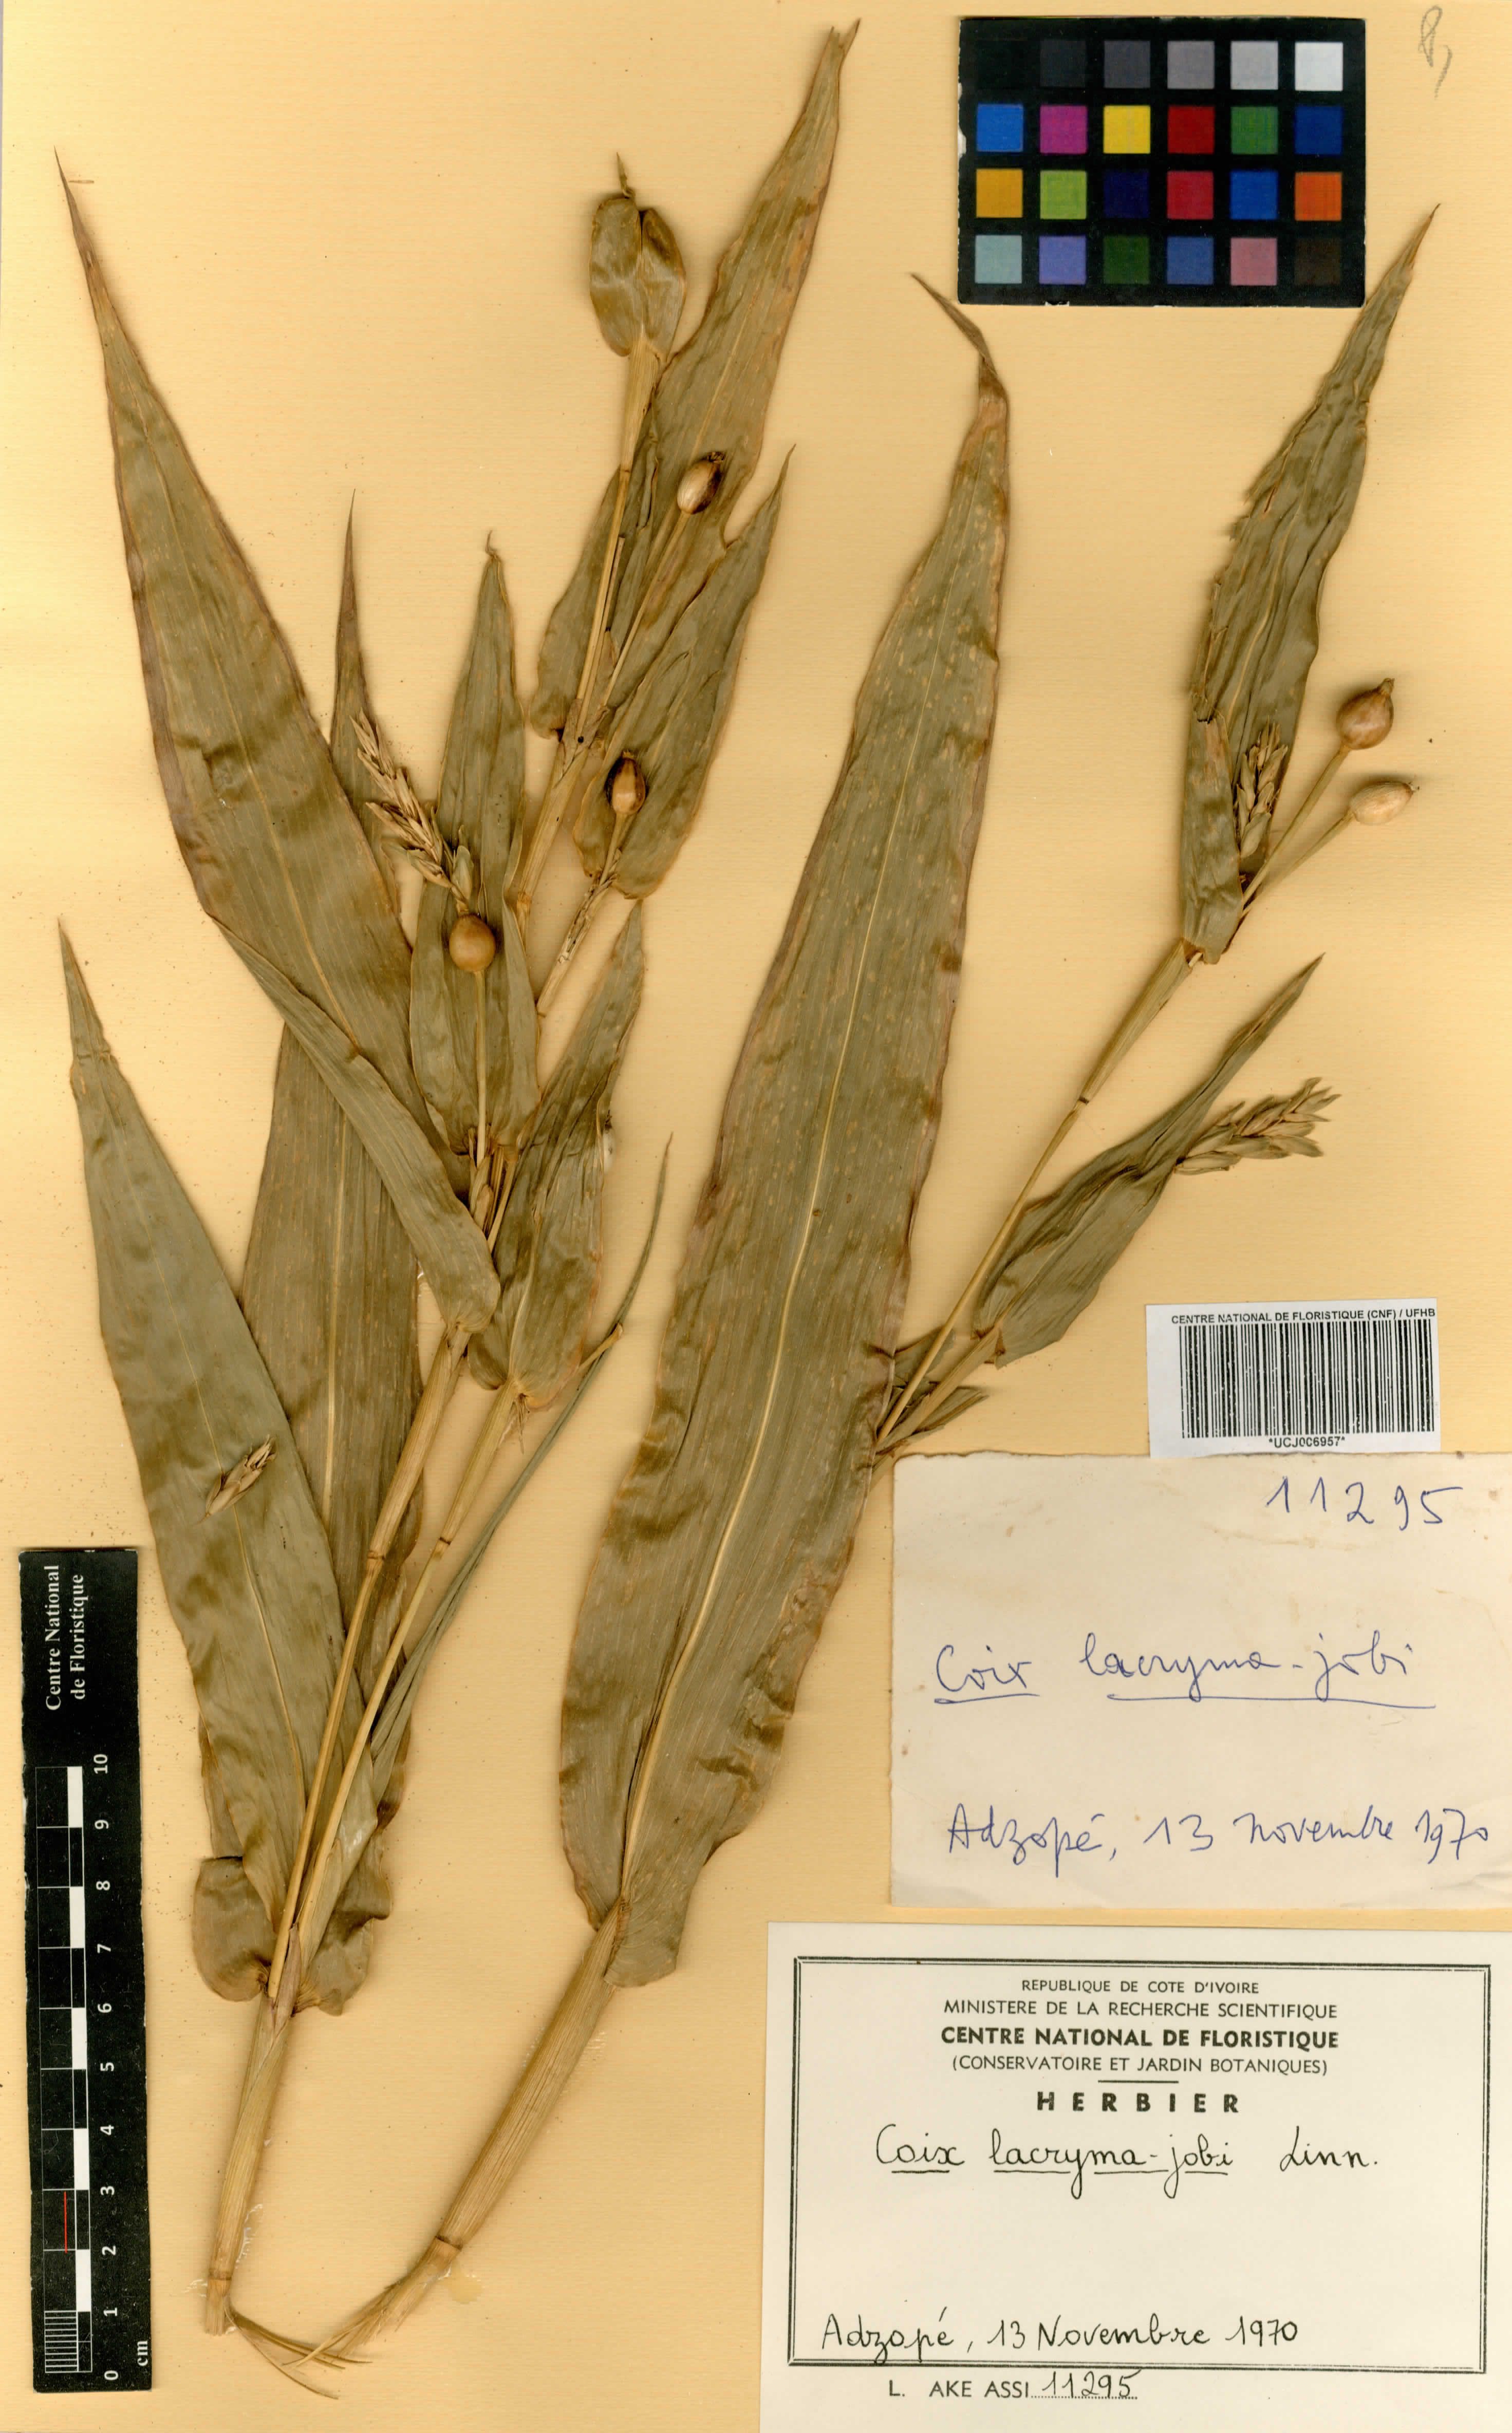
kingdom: Plantae
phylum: Tracheophyta
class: Liliopsida
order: Poales
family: Poaceae
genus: Coix
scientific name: Coix lacryma-jobi
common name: Job's tears
